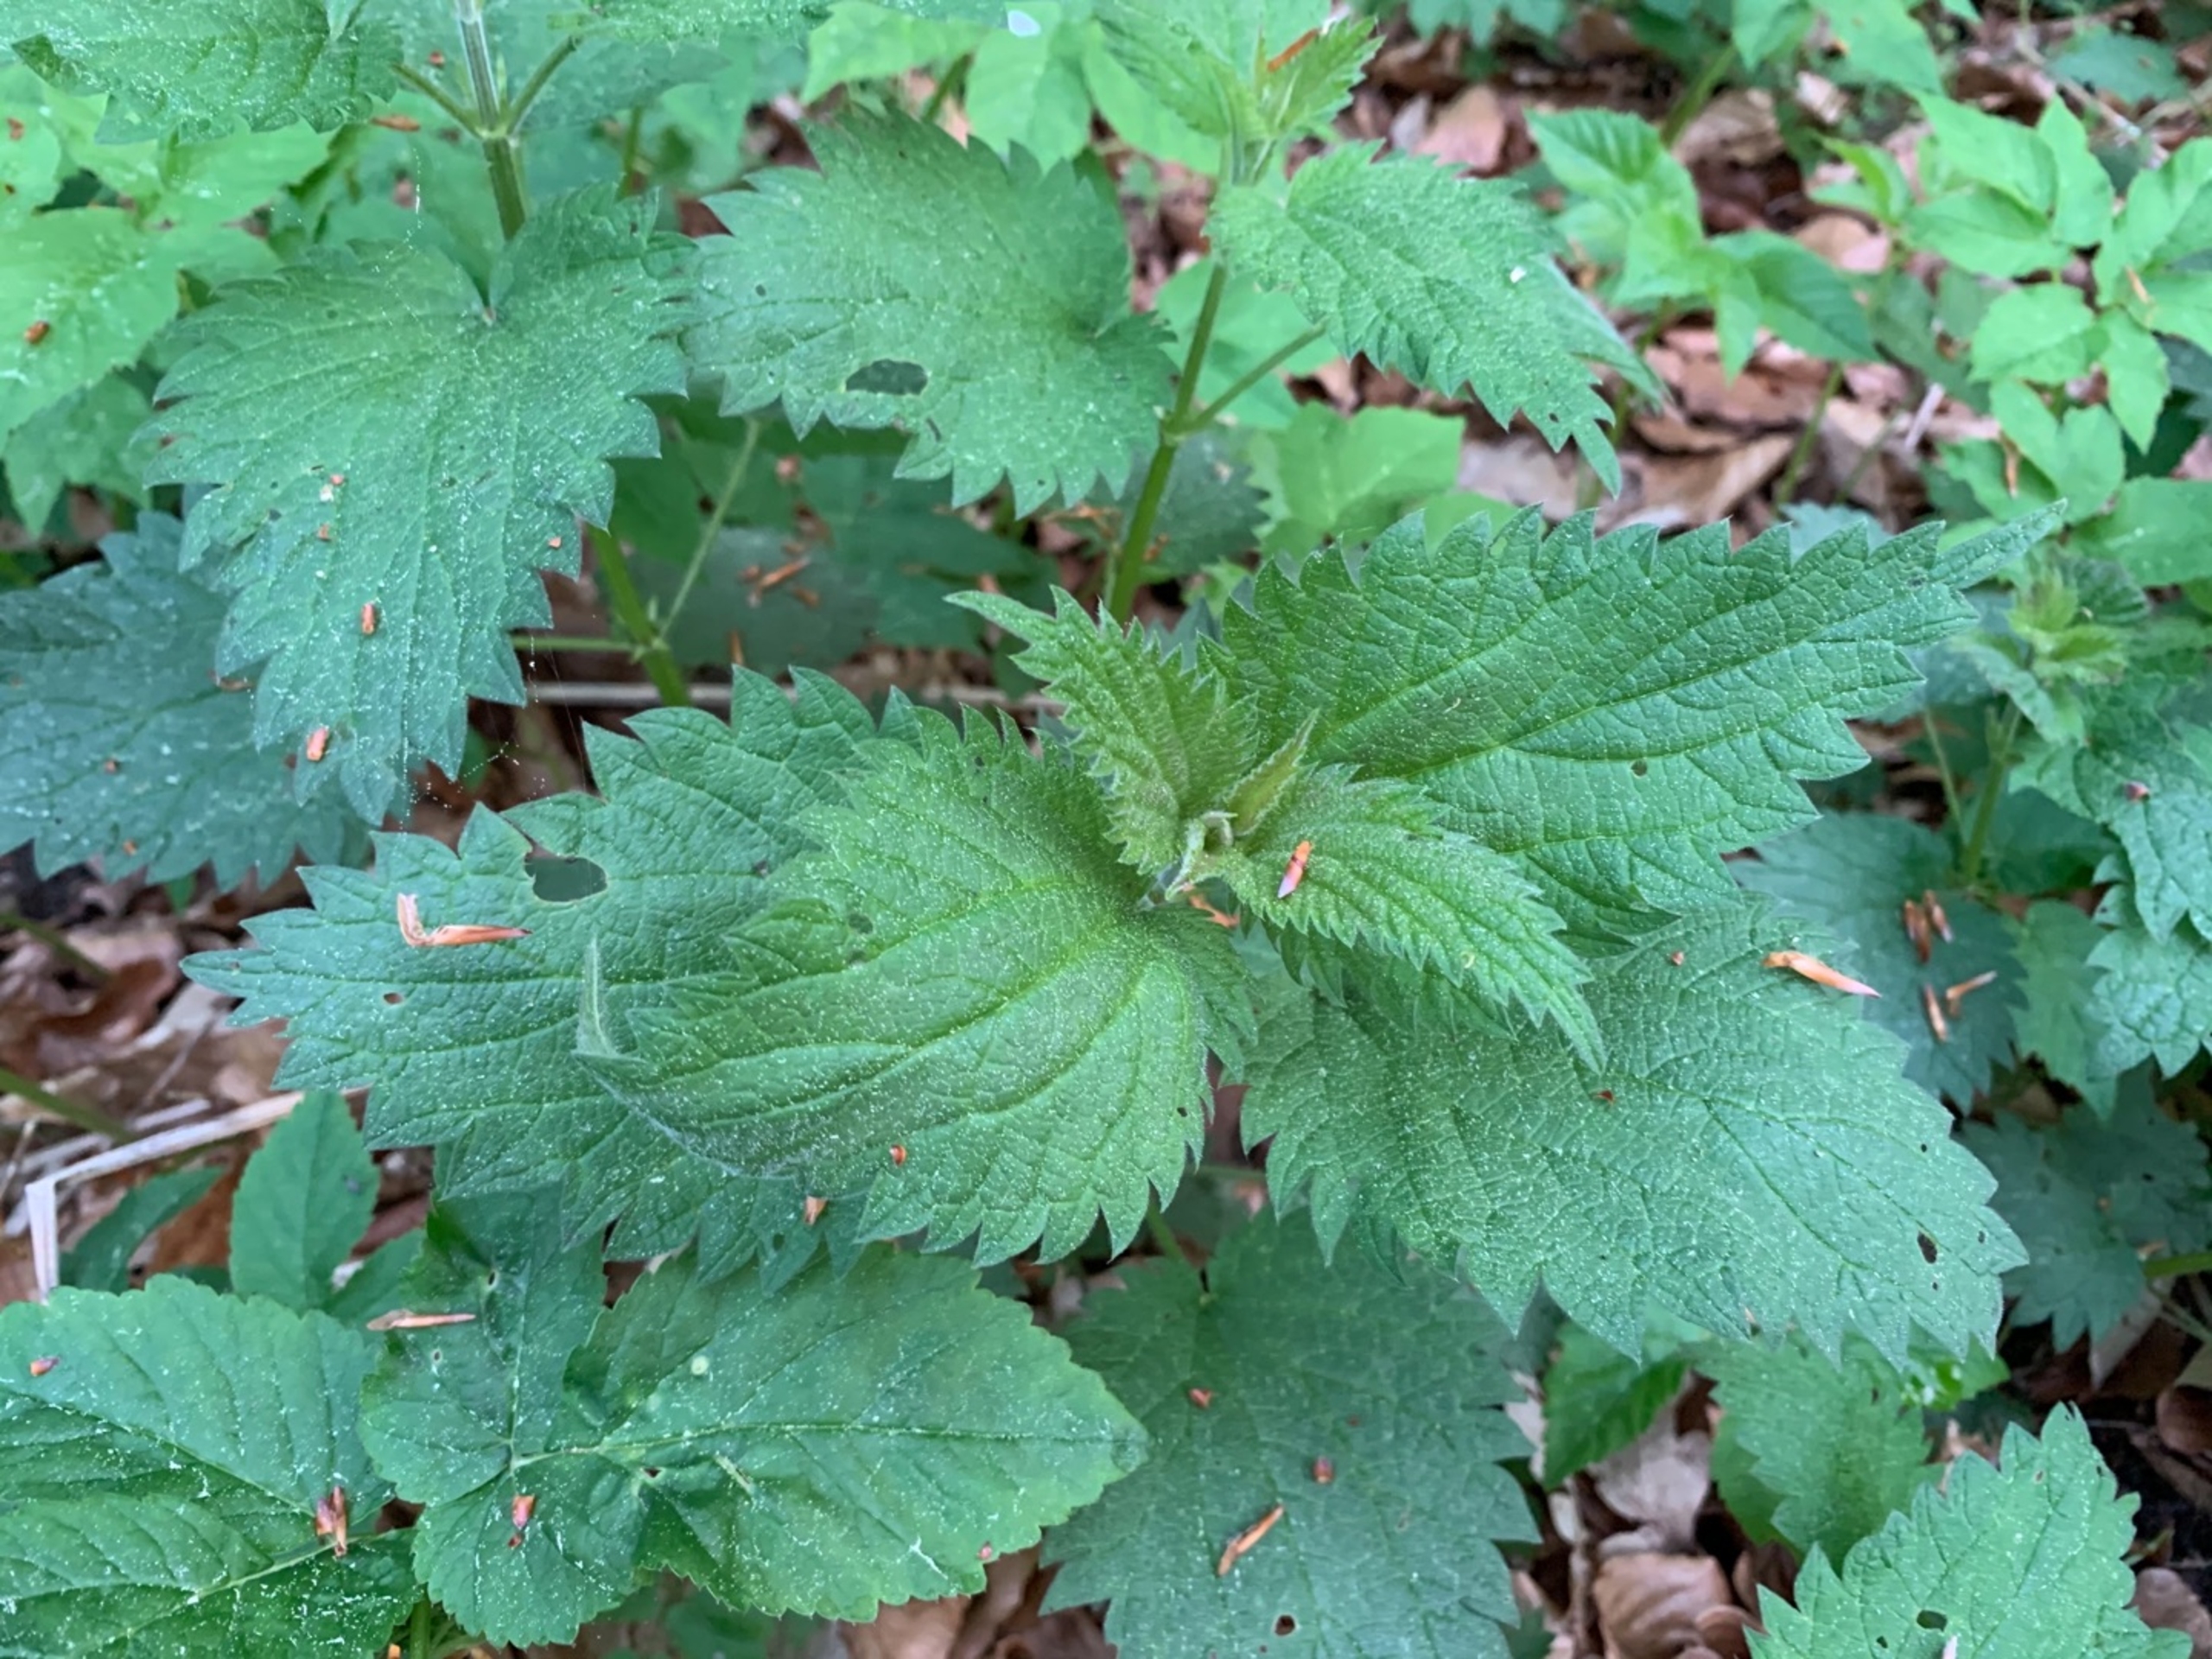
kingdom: Plantae
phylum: Tracheophyta
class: Magnoliopsida
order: Rosales
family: Urticaceae
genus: Urtica
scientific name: Urtica dioica
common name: Stor nælde
